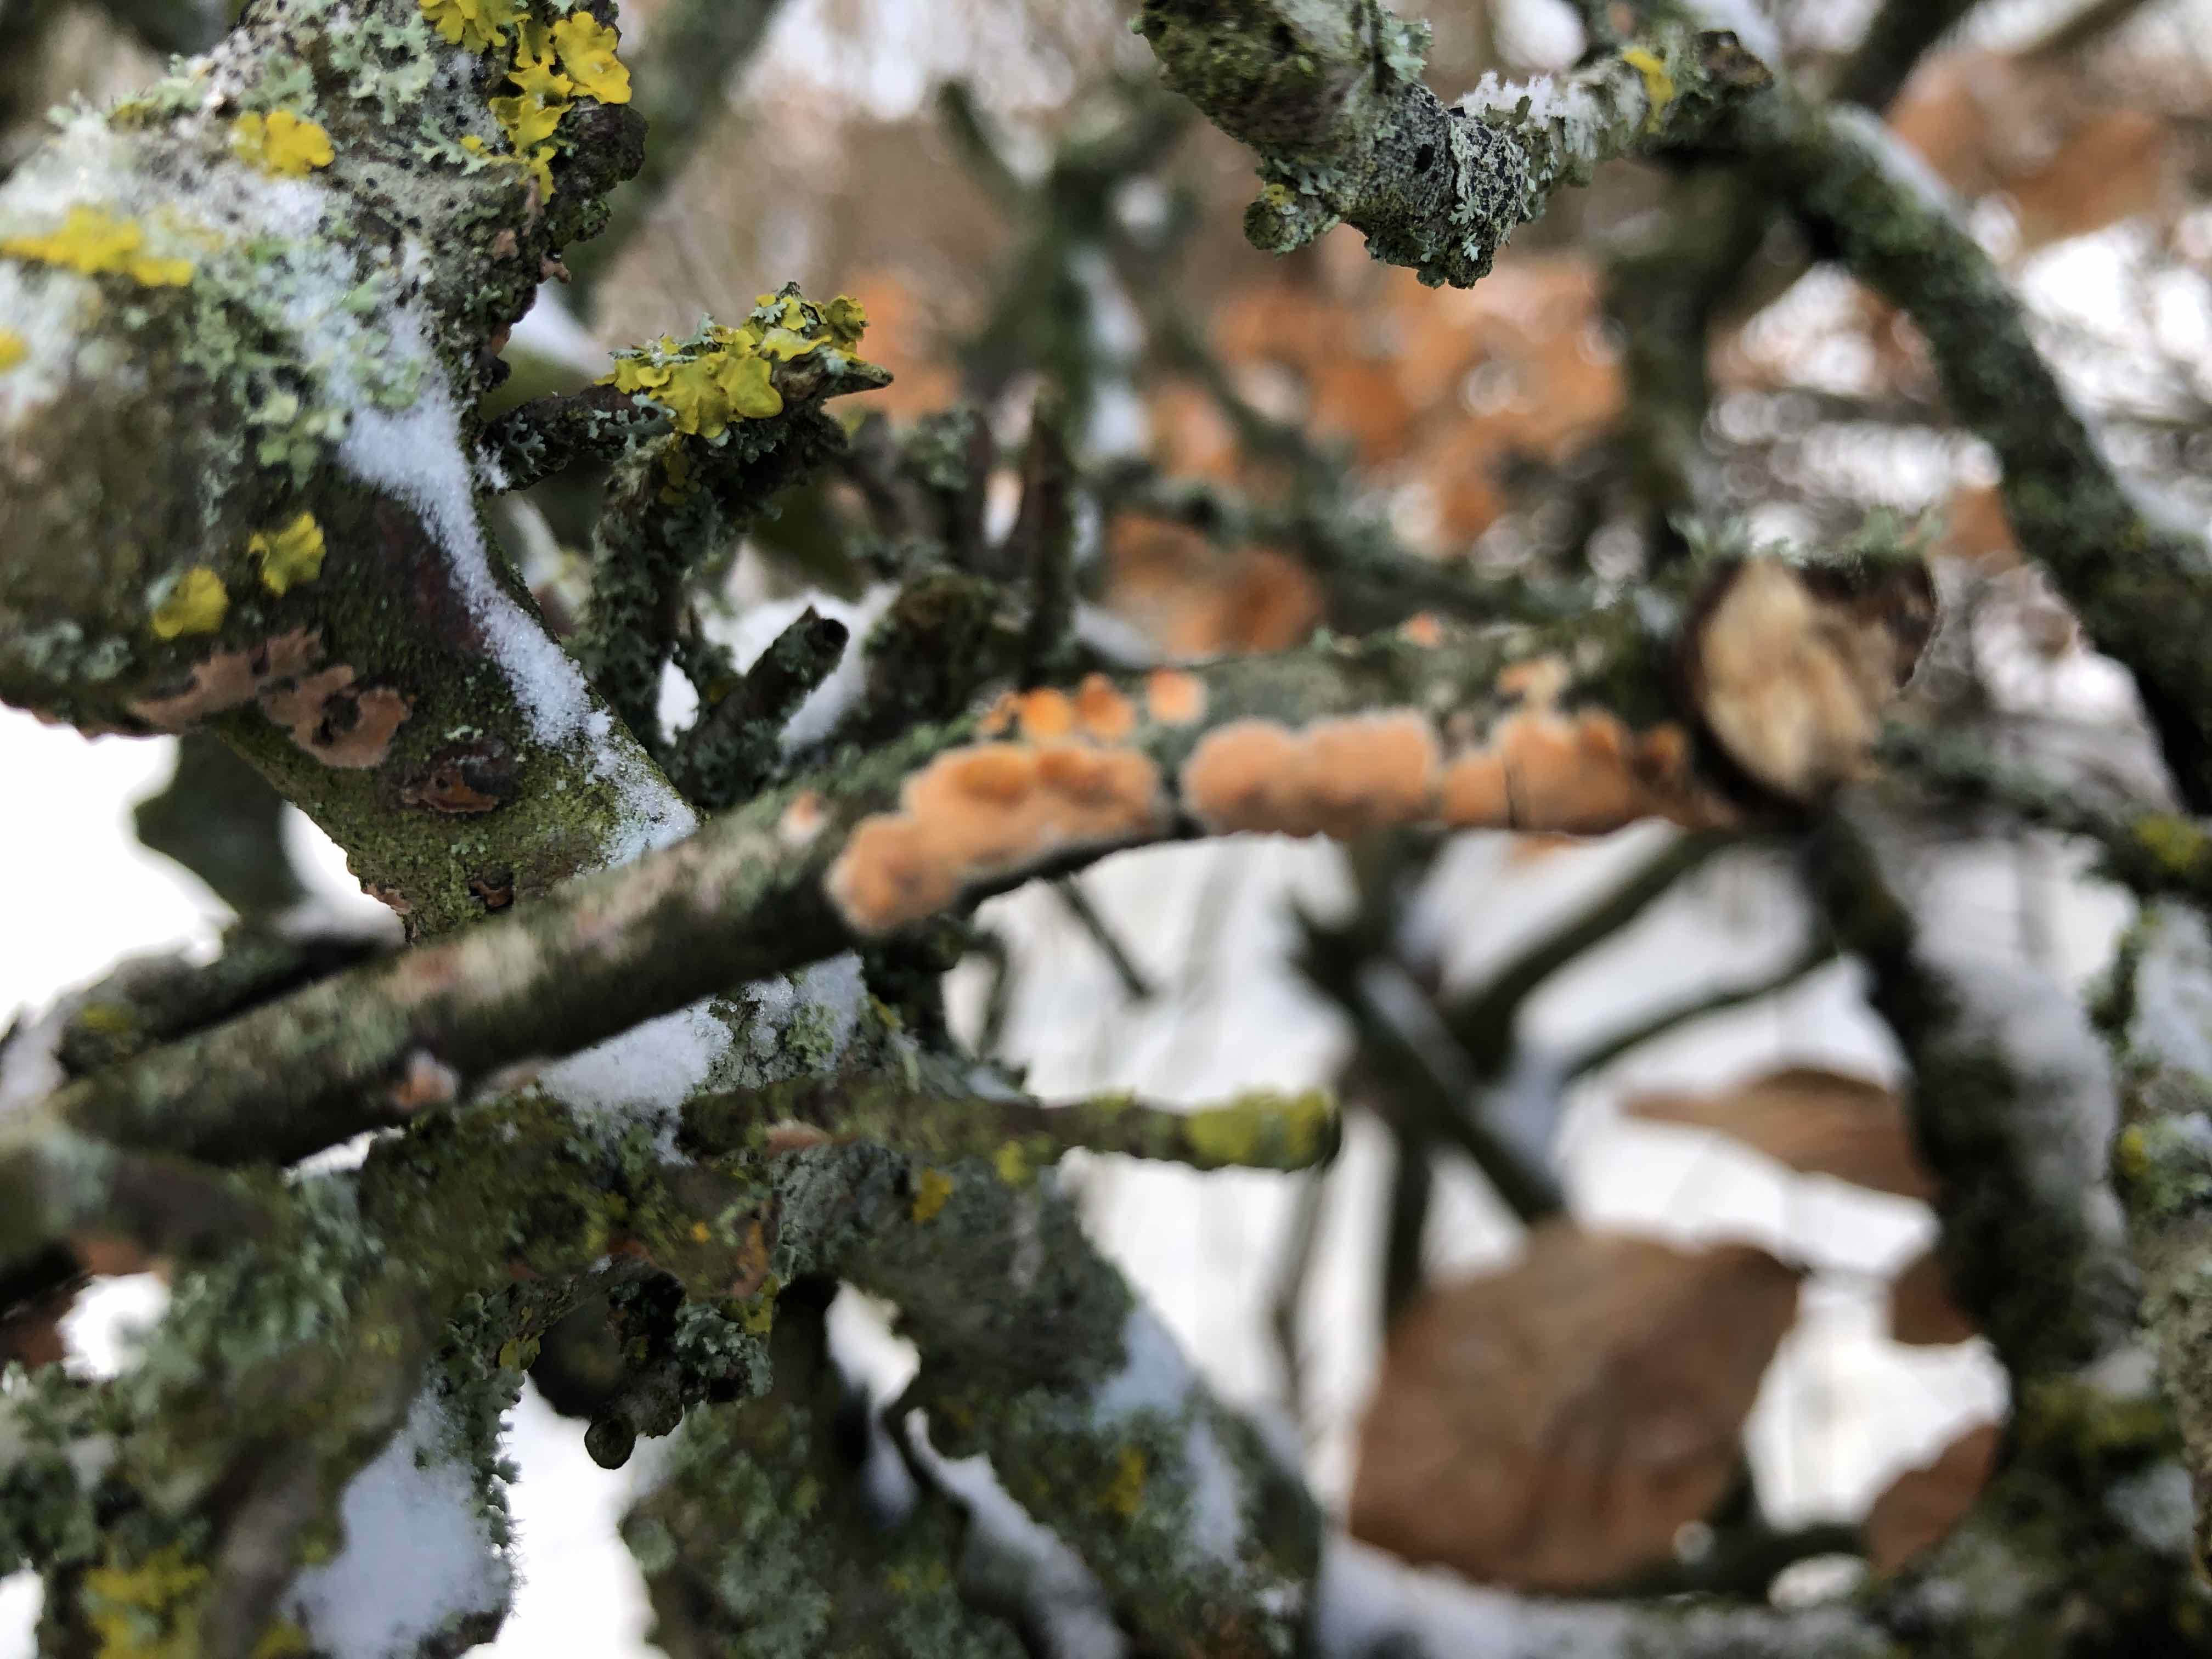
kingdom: Fungi
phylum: Basidiomycota
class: Agaricomycetes
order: Russulales
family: Peniophoraceae
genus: Peniophora
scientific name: Peniophora incarnata
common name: laksefarvet voksskind
